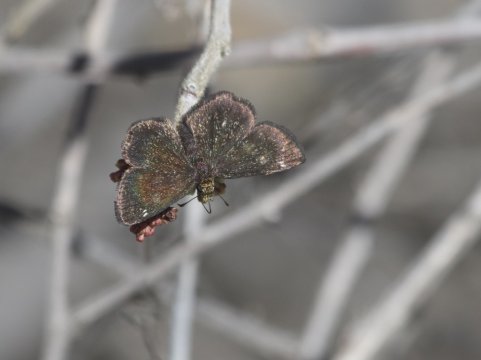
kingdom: Animalia
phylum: Arthropoda
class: Insecta
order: Lepidoptera
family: Hesperiidae
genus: Staphylus
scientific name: Staphylus ceos
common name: Golden-headed Scallopwing
